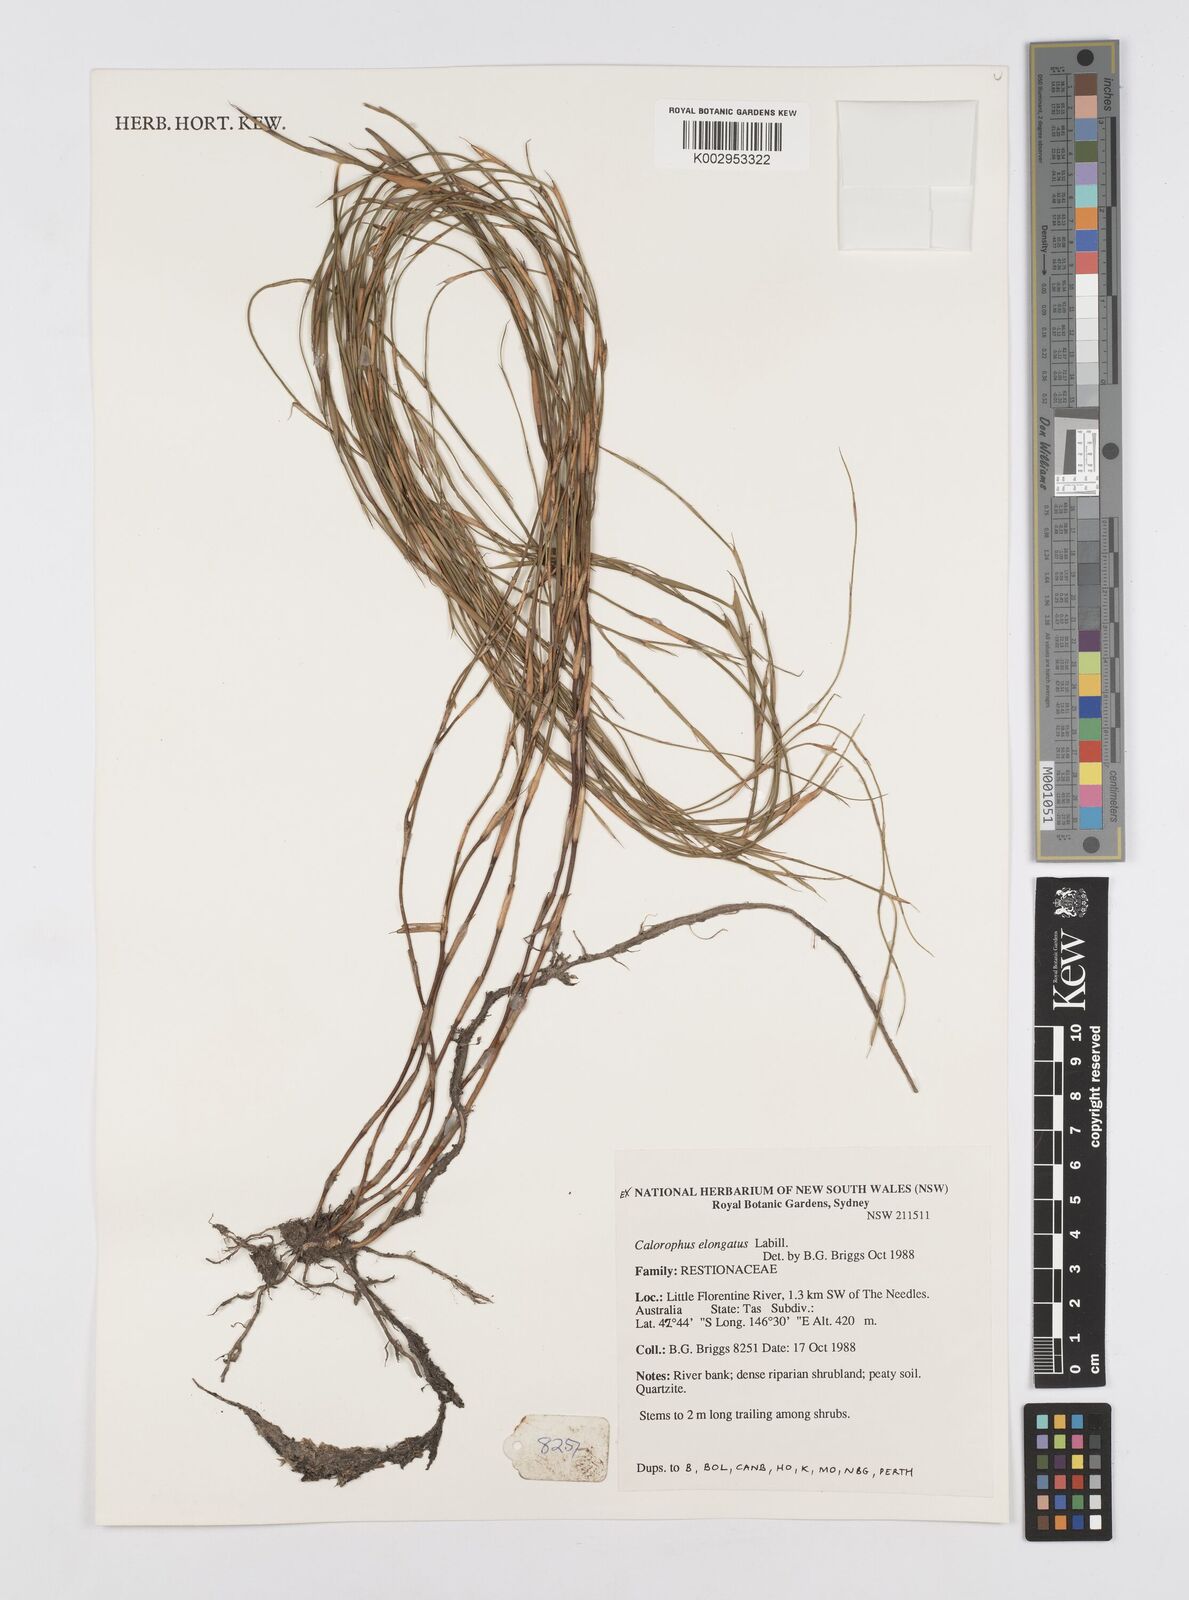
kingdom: Plantae
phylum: Tracheophyta
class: Liliopsida
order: Poales
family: Restionaceae
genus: Calorophus
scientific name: Calorophus elongatus
